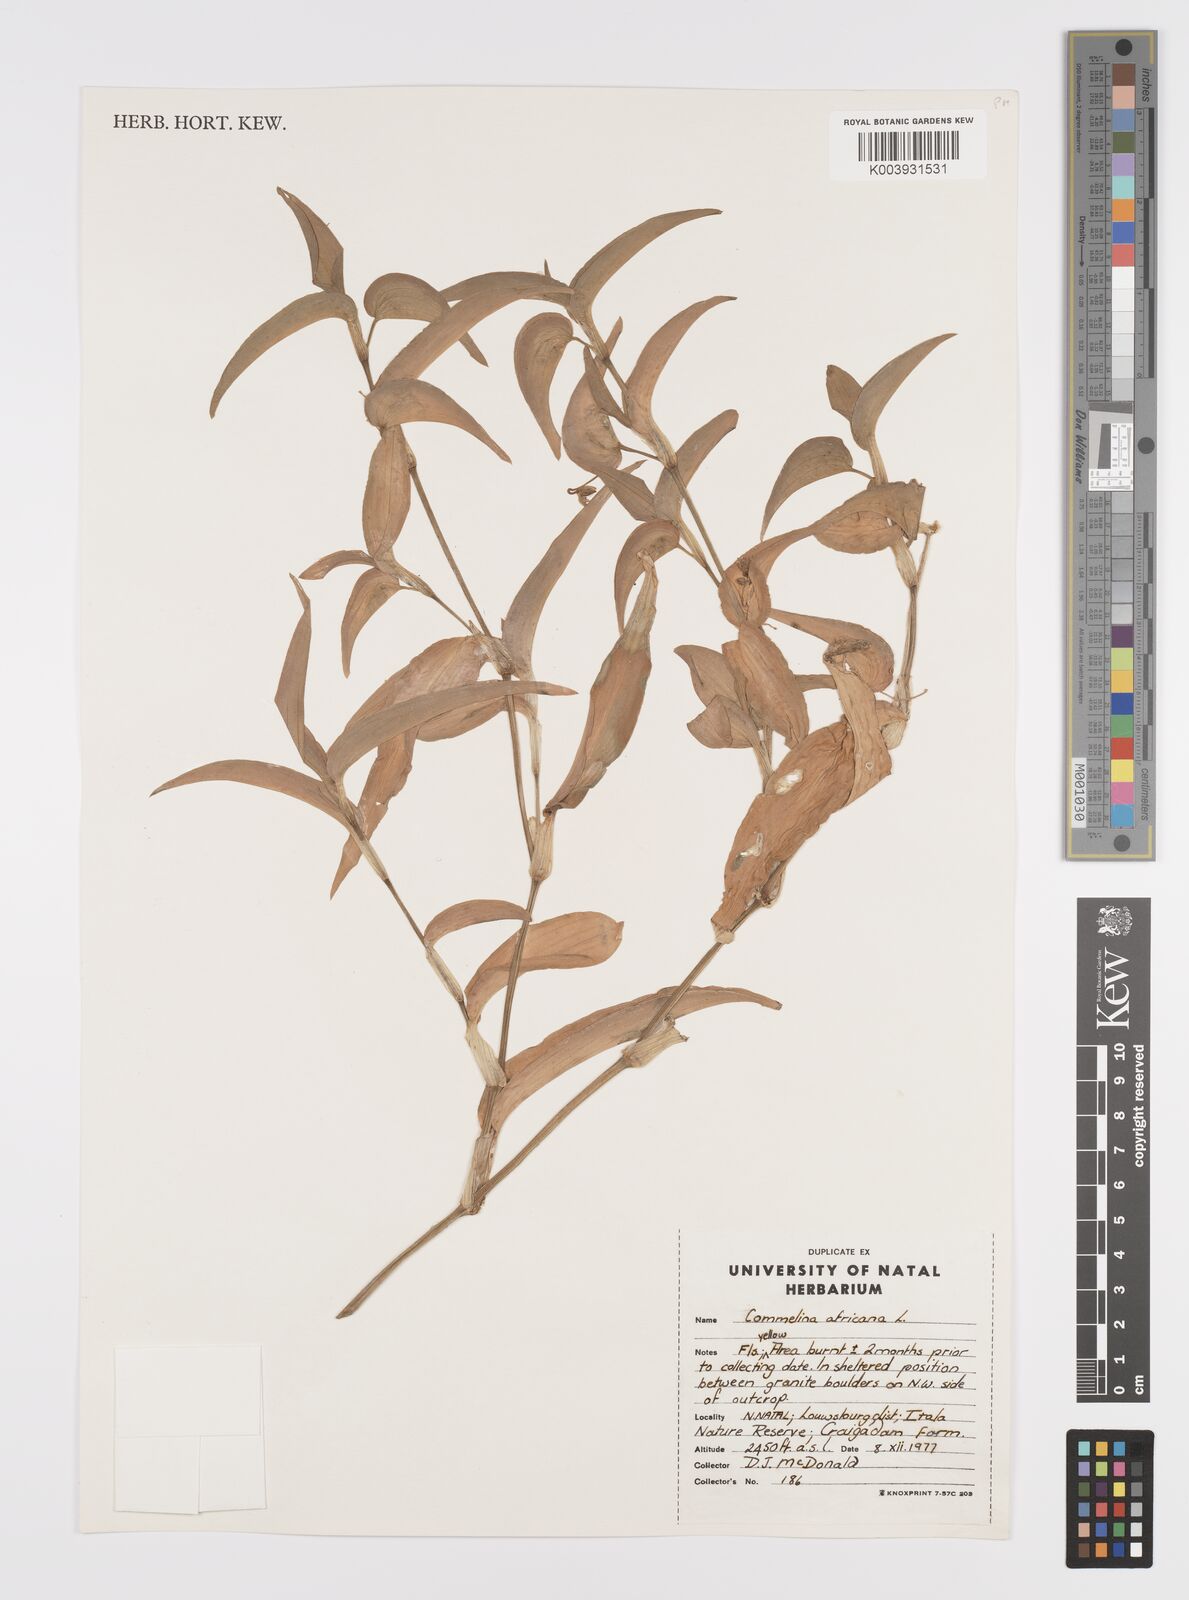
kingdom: Plantae
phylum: Tracheophyta
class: Liliopsida
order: Commelinales
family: Commelinaceae
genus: Commelina
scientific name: Commelina diffusa
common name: Climbing dayflower
